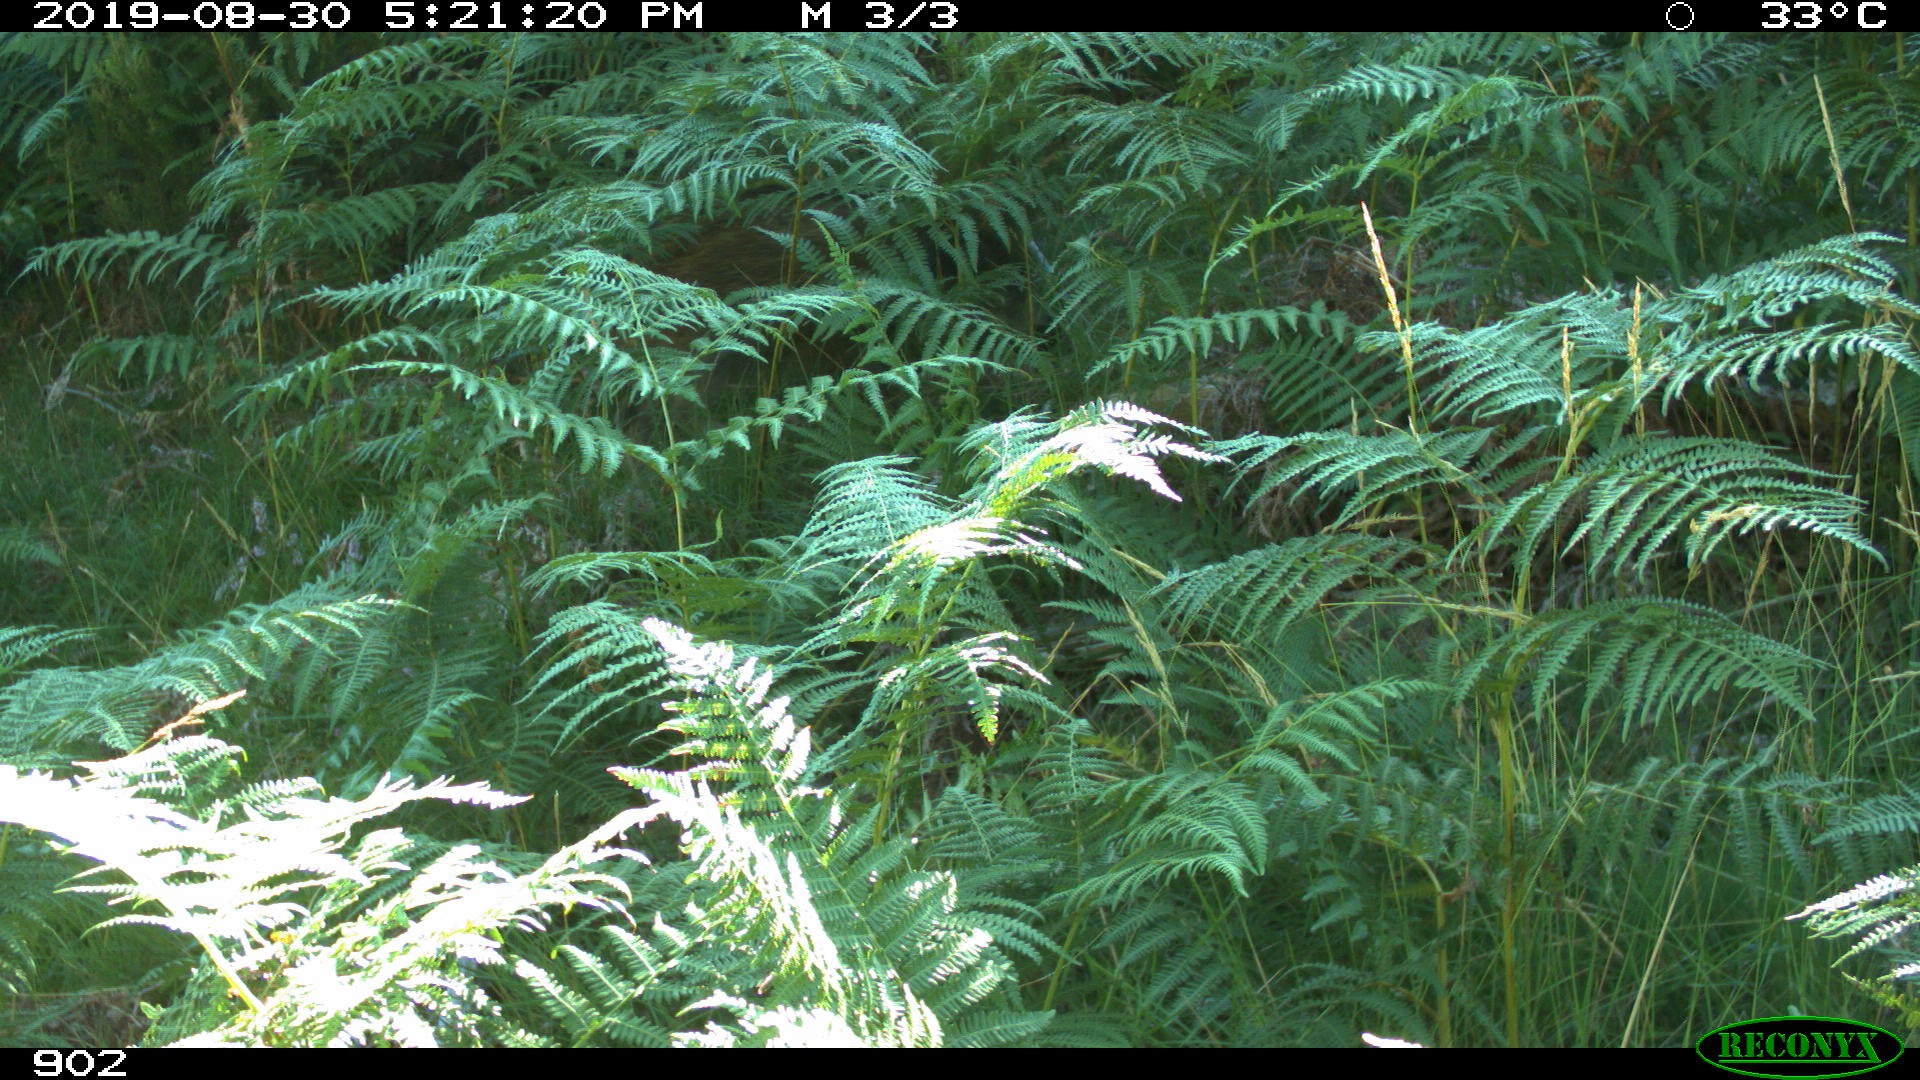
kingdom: Animalia
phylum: Chordata
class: Mammalia
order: Artiodactyla
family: Suidae
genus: Sus
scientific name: Sus scrofa
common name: Wild boar
